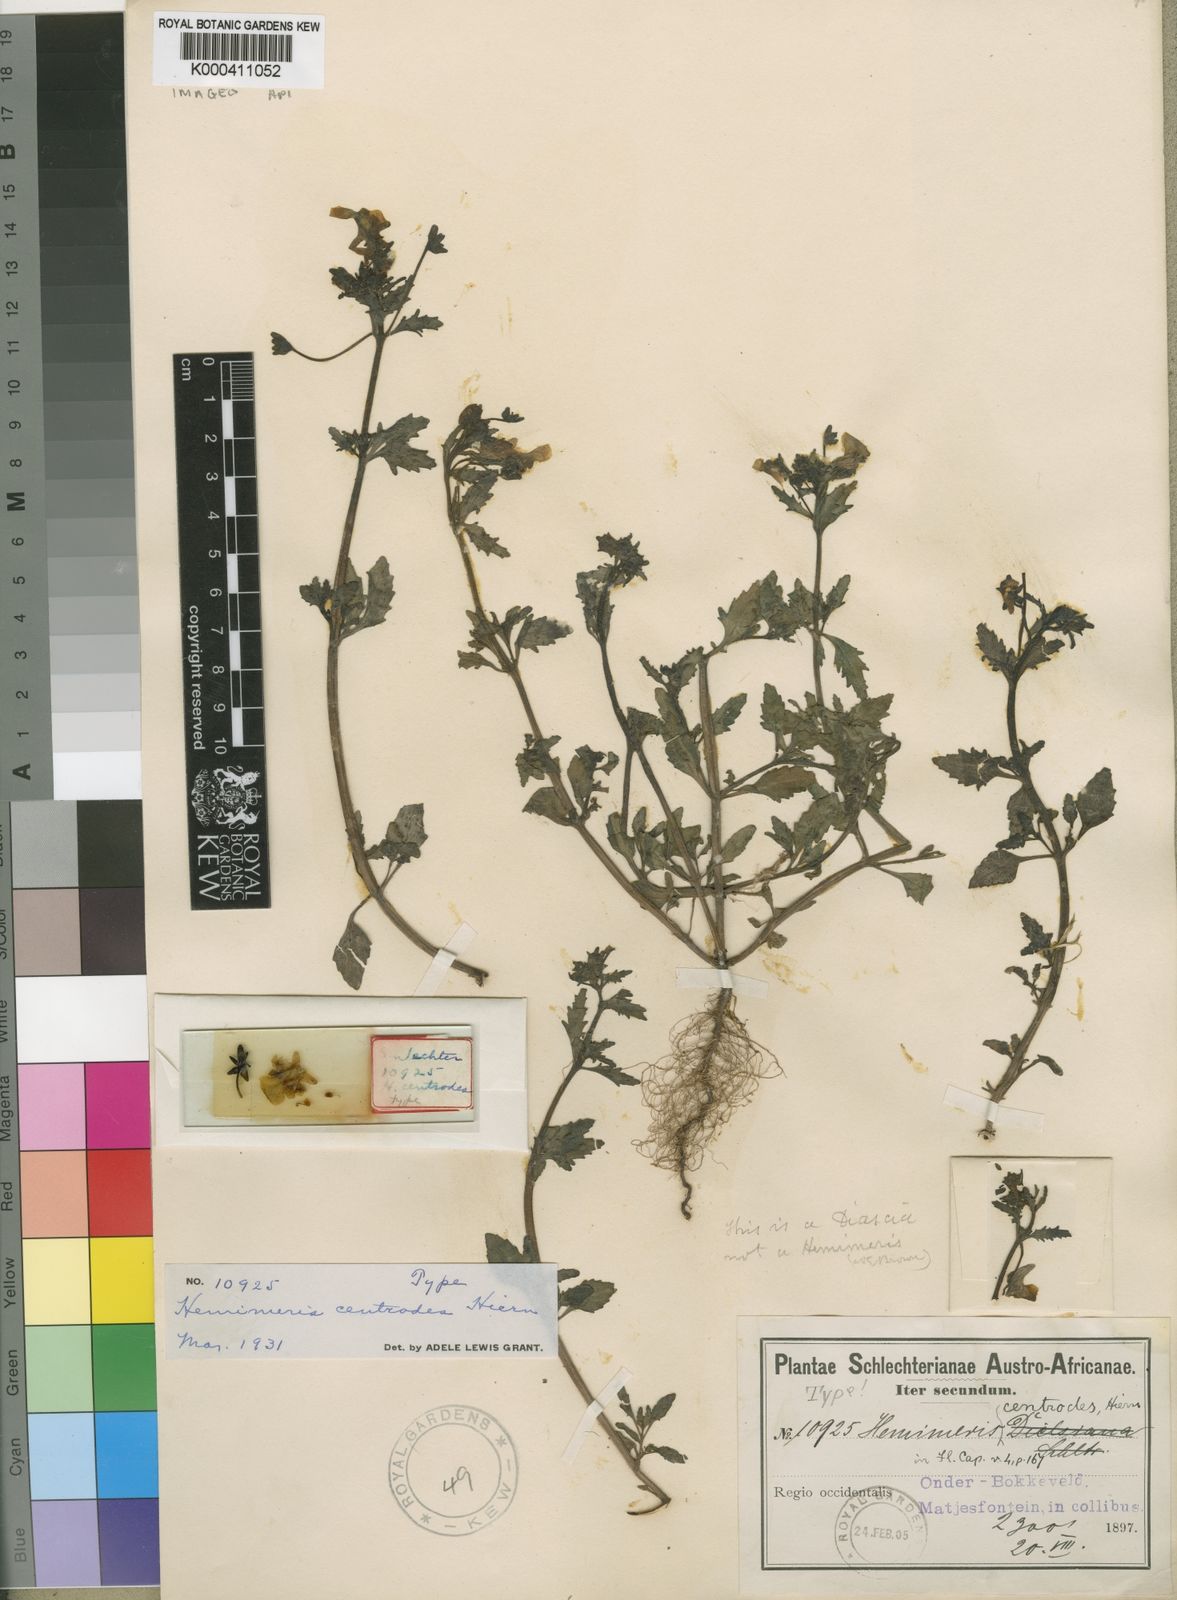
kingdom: Plantae
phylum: Tracheophyta
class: Magnoliopsida
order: Lamiales
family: Scrophulariaceae
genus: Hemimeris
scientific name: Hemimeris centrodes
